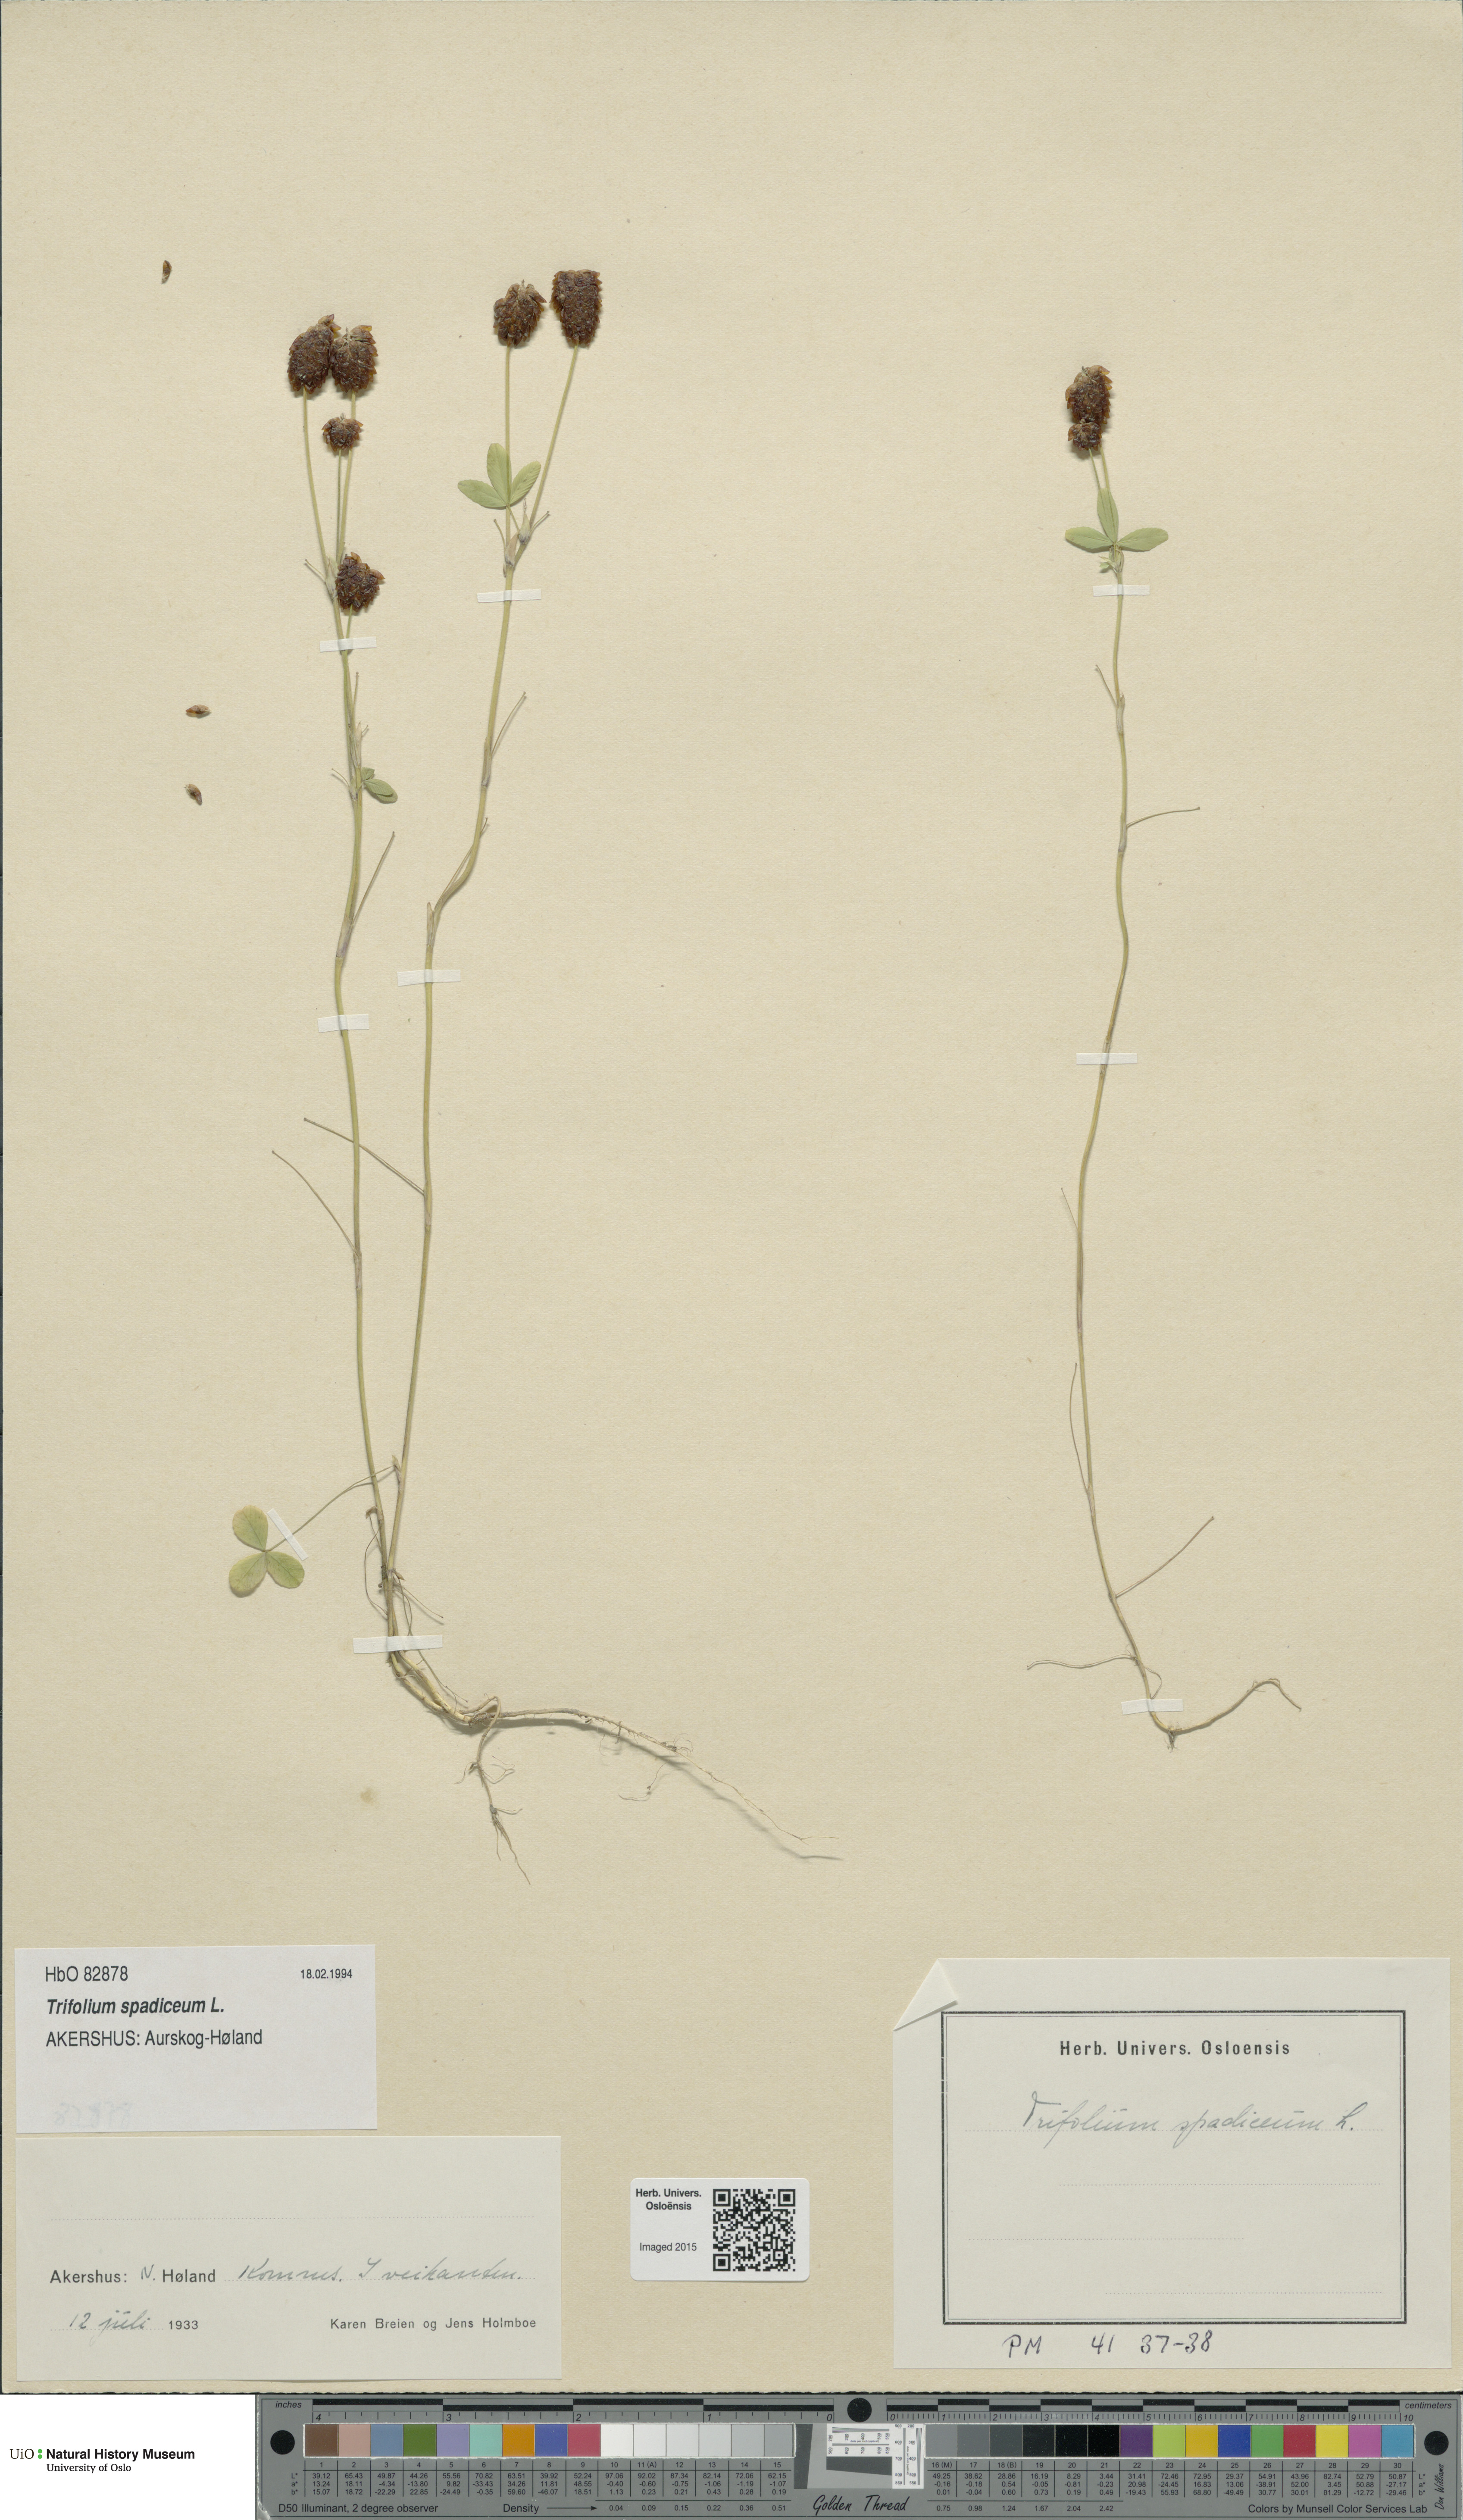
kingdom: Plantae
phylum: Tracheophyta
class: Magnoliopsida
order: Fabales
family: Fabaceae
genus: Trifolium
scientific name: Trifolium spadiceum
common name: Brown moor clover
